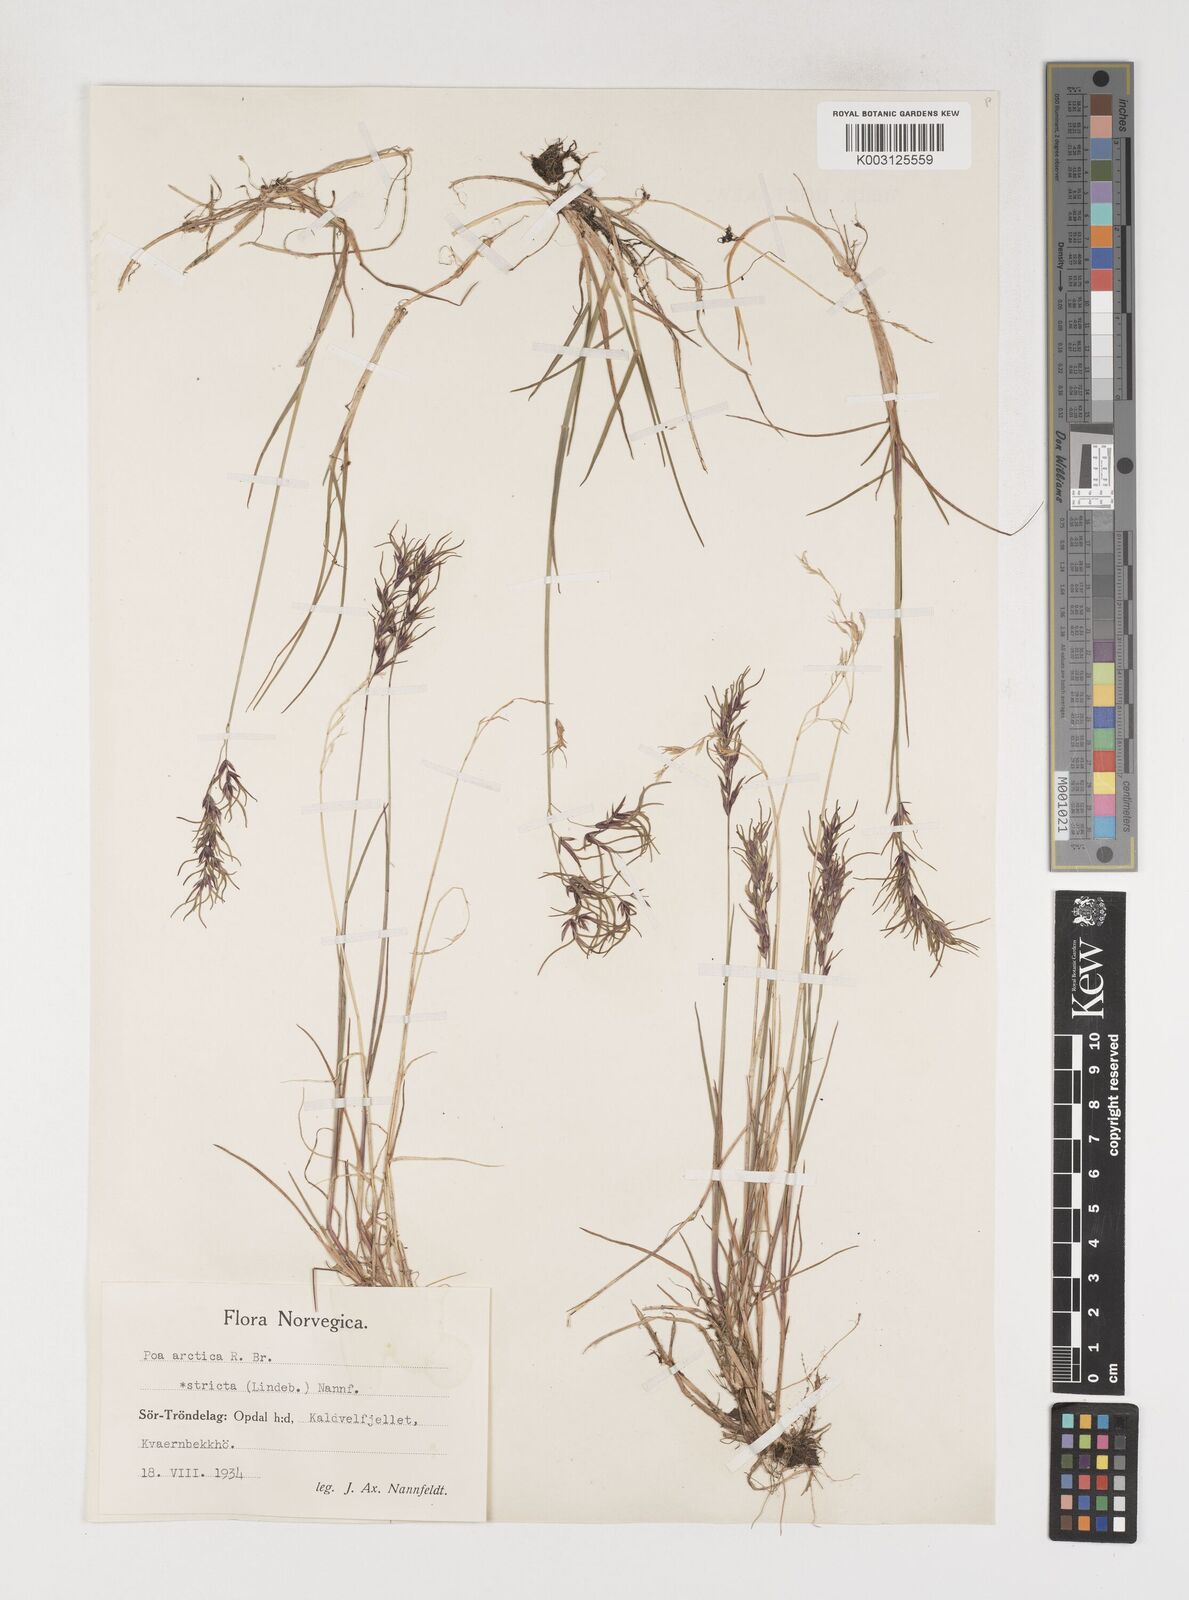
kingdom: Plantae
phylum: Tracheophyta
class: Liliopsida
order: Poales
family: Poaceae
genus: Poa
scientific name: Poa arctica
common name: Arctic bluegrass
